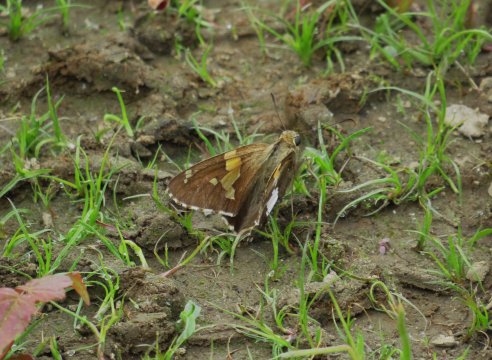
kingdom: Animalia
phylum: Arthropoda
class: Insecta
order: Lepidoptera
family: Hesperiidae
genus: Epargyreus
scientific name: Epargyreus clarus
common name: Silver-spotted Skipper
